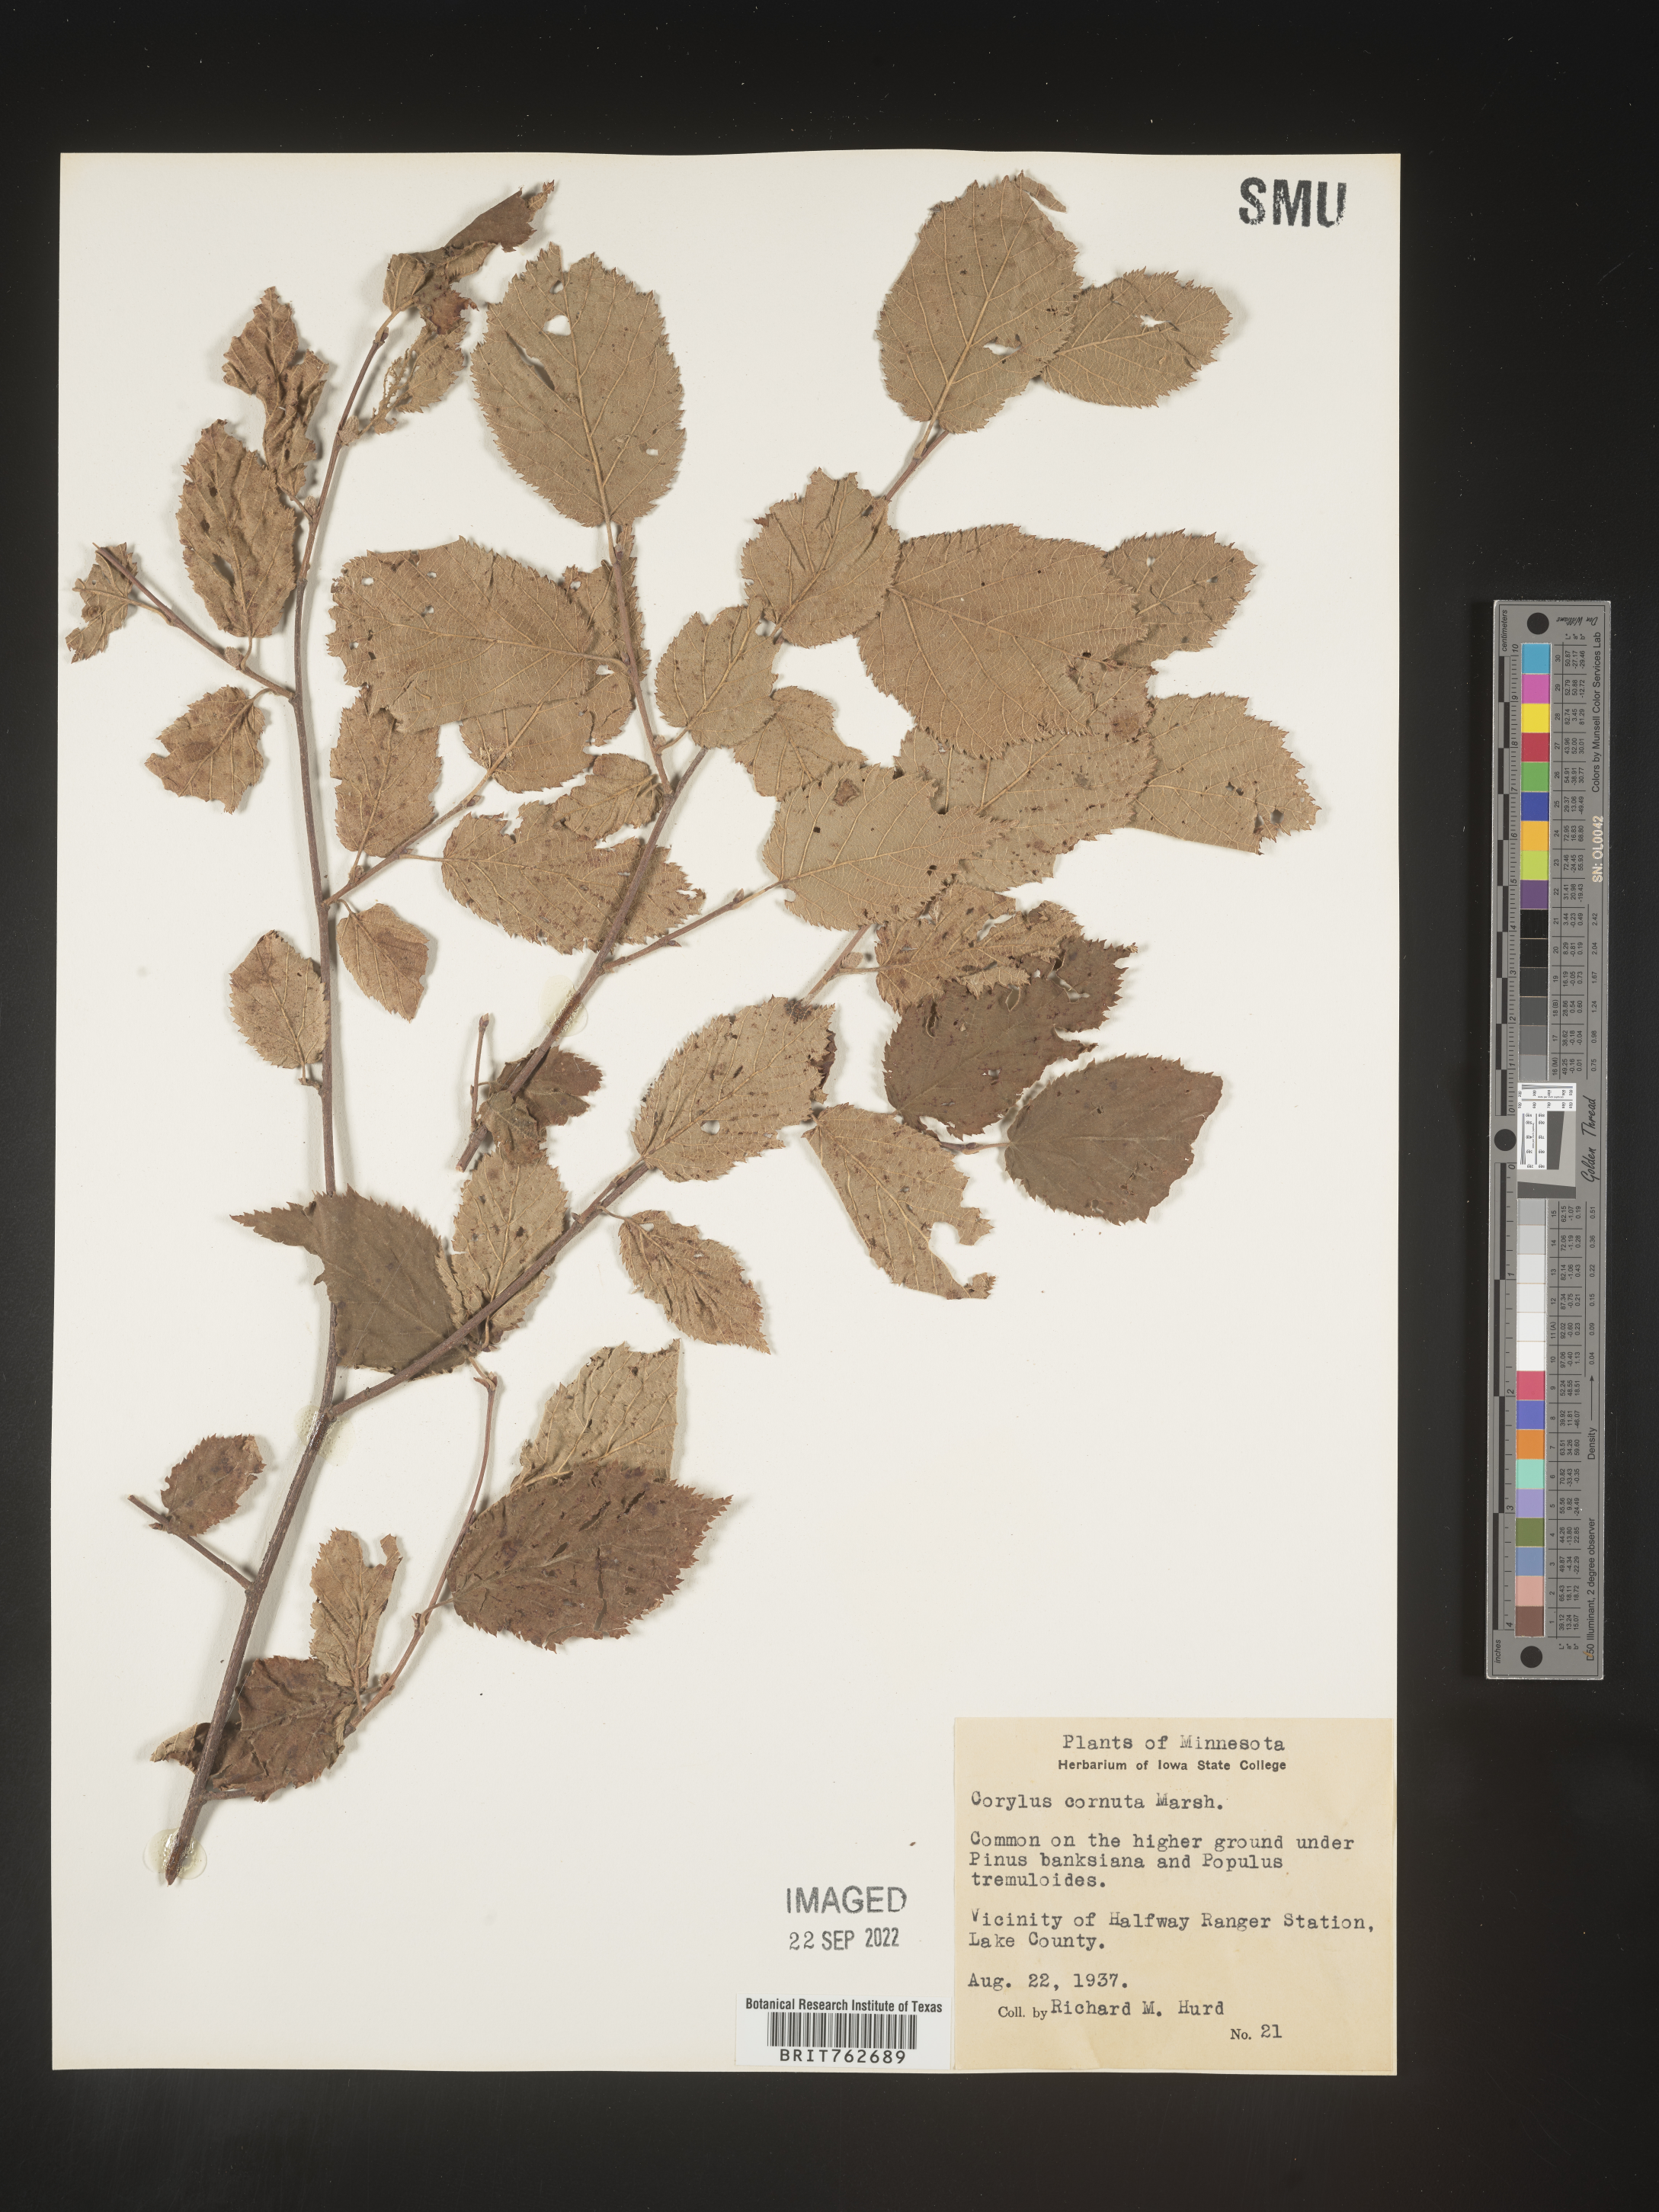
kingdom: Plantae
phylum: Tracheophyta
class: Magnoliopsida
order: Fagales
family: Betulaceae
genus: Corylus
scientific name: Corylus cornuta
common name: Beaked hazel
